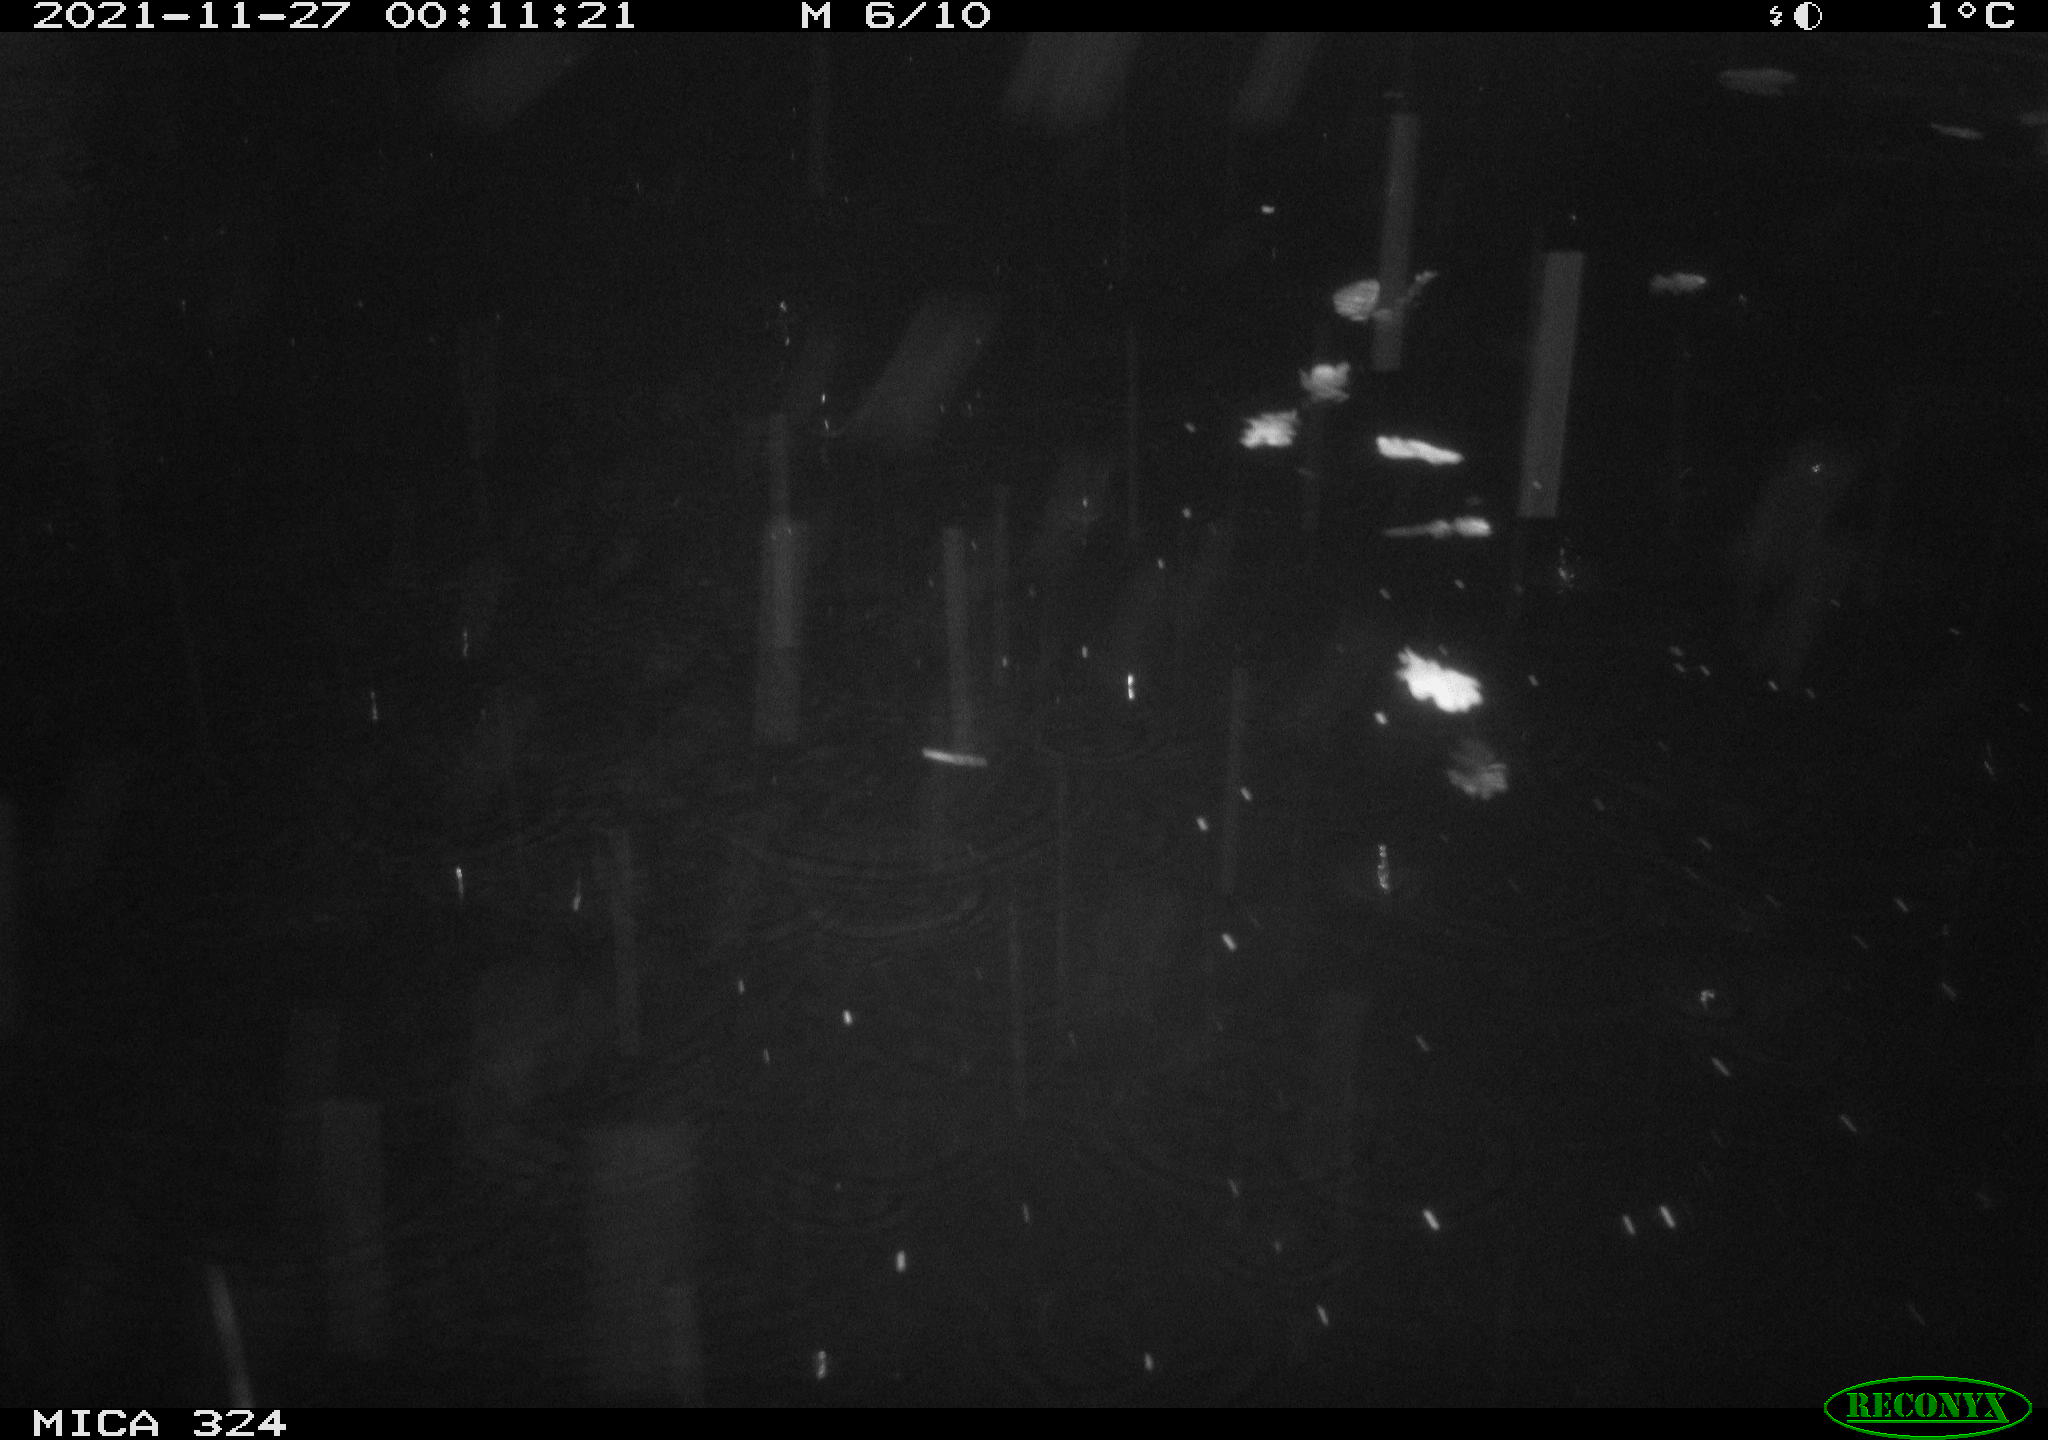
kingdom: Animalia
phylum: Chordata
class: Mammalia
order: Rodentia
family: Cricetidae
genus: Ondatra
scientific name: Ondatra zibethicus
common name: Muskrat
